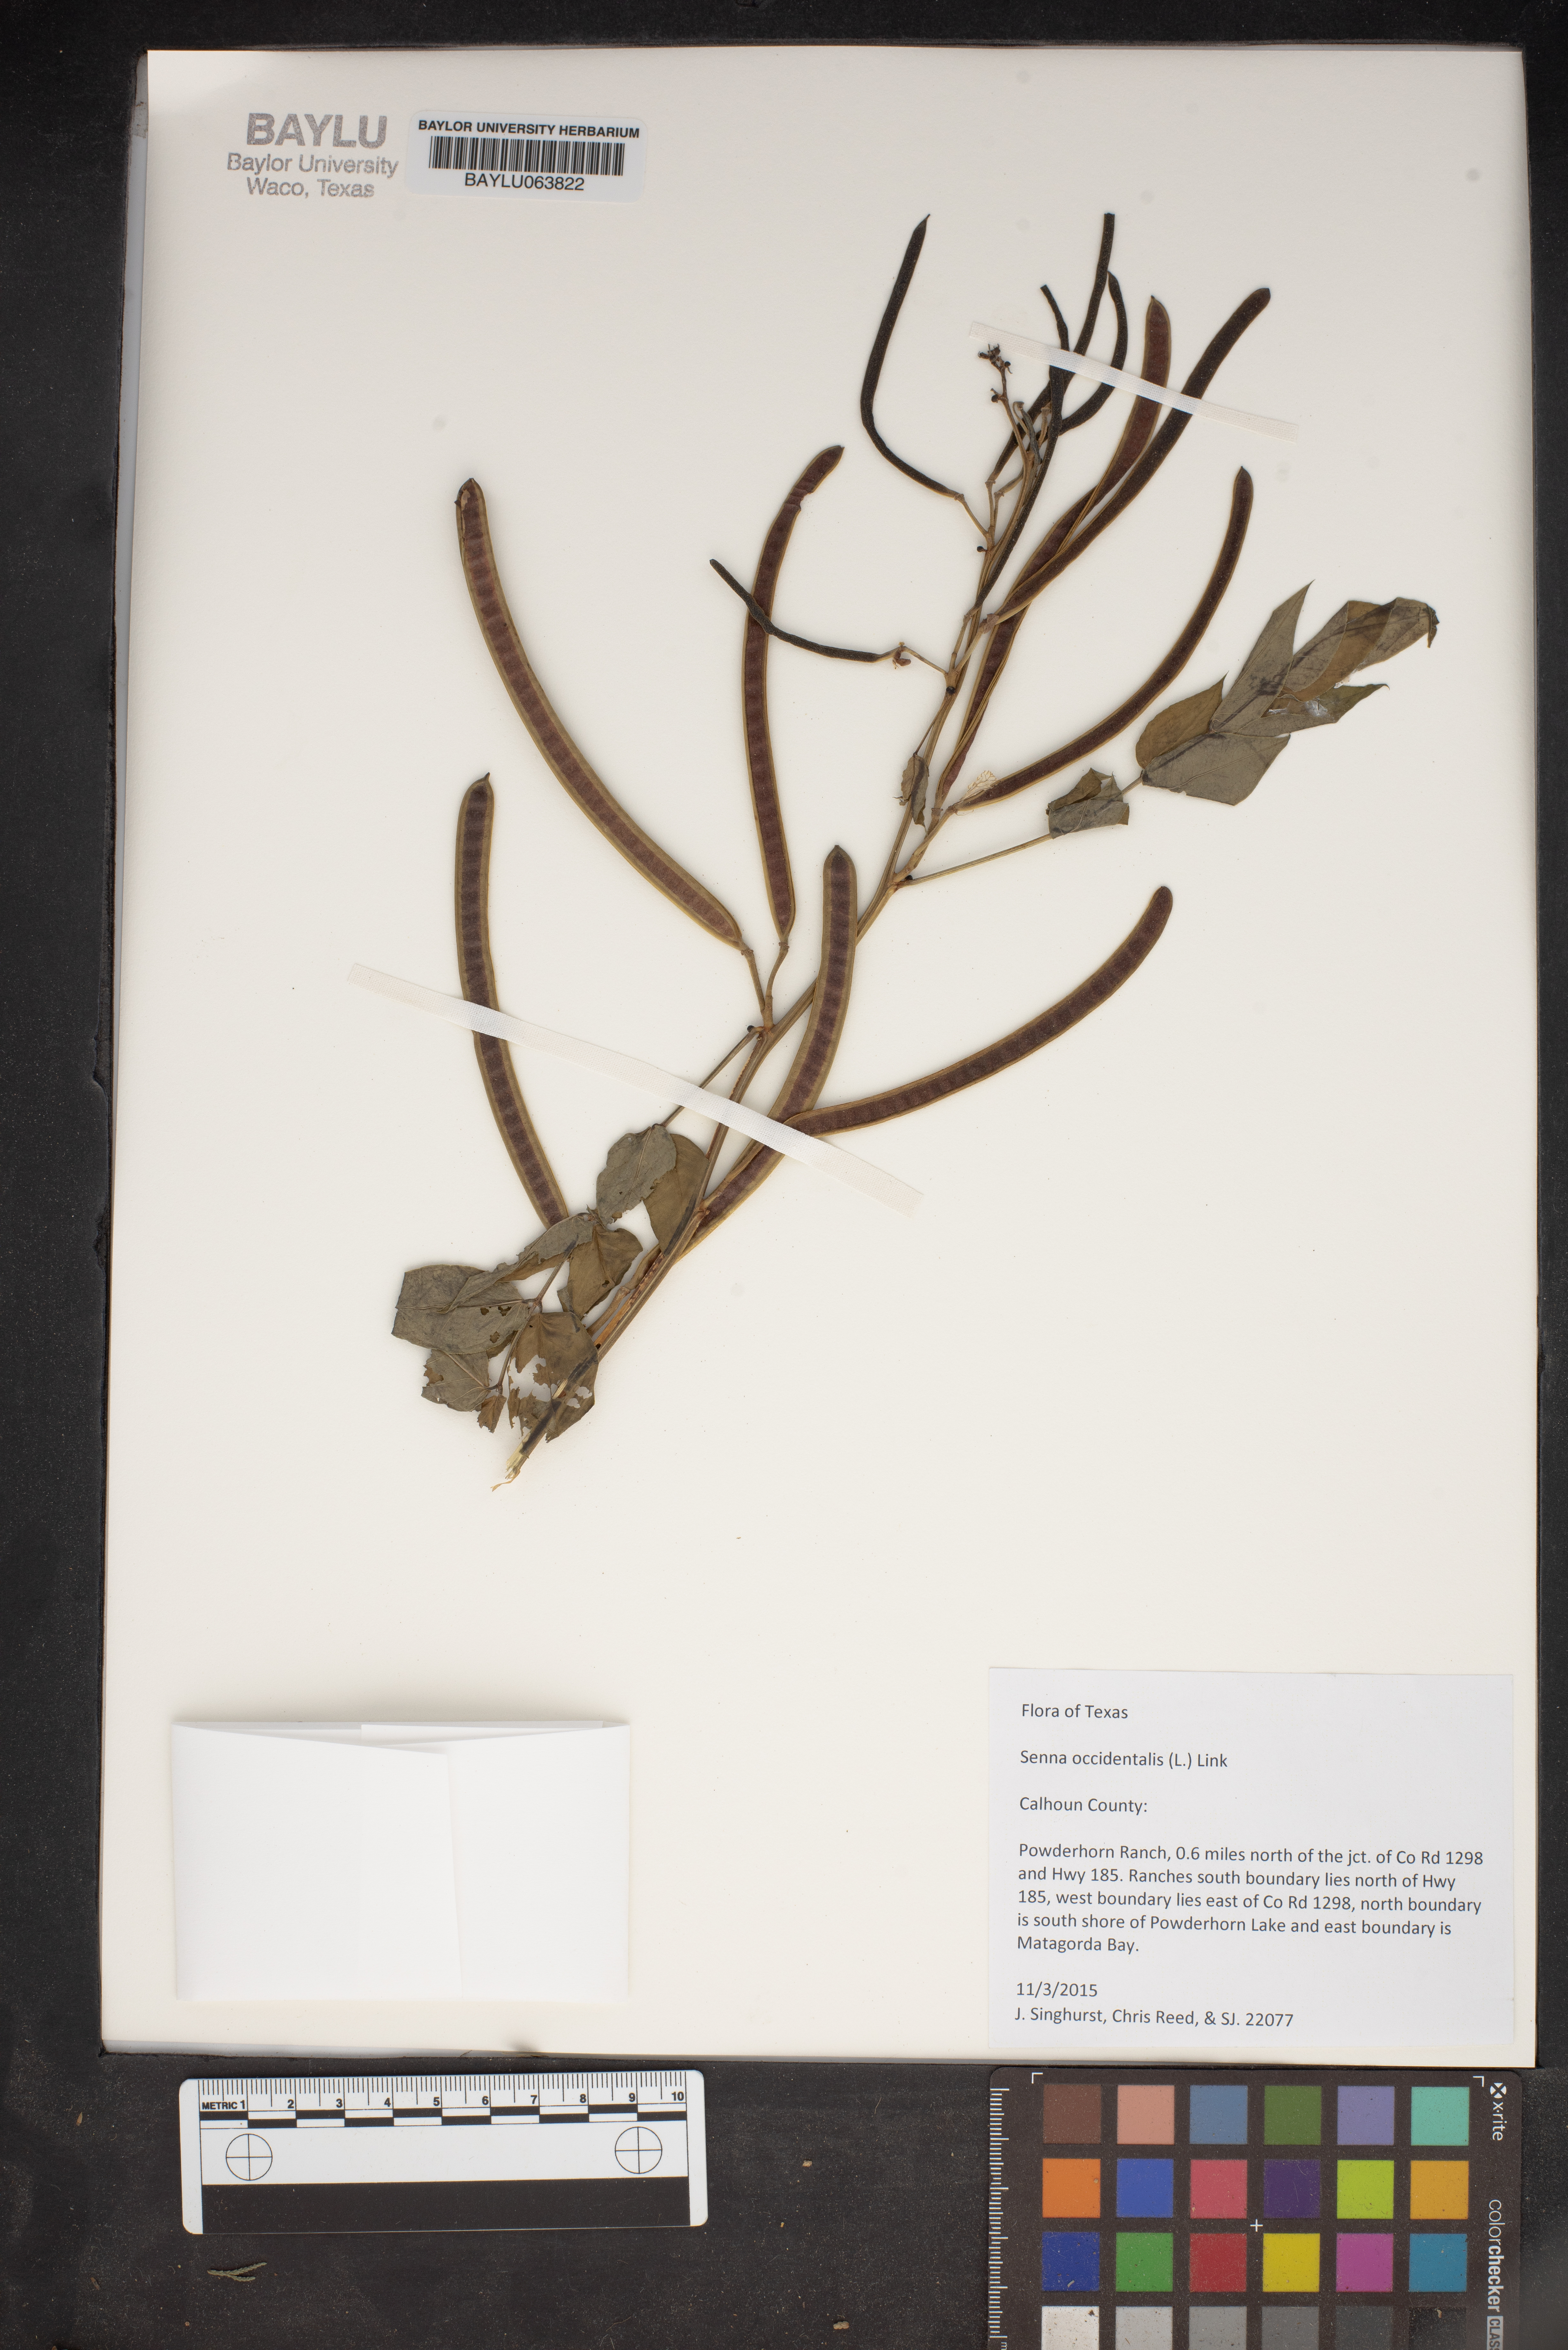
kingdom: Plantae
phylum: Tracheophyta
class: Magnoliopsida
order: Fabales
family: Fabaceae
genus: Senna
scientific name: Senna occidentalis
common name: Septicweed
